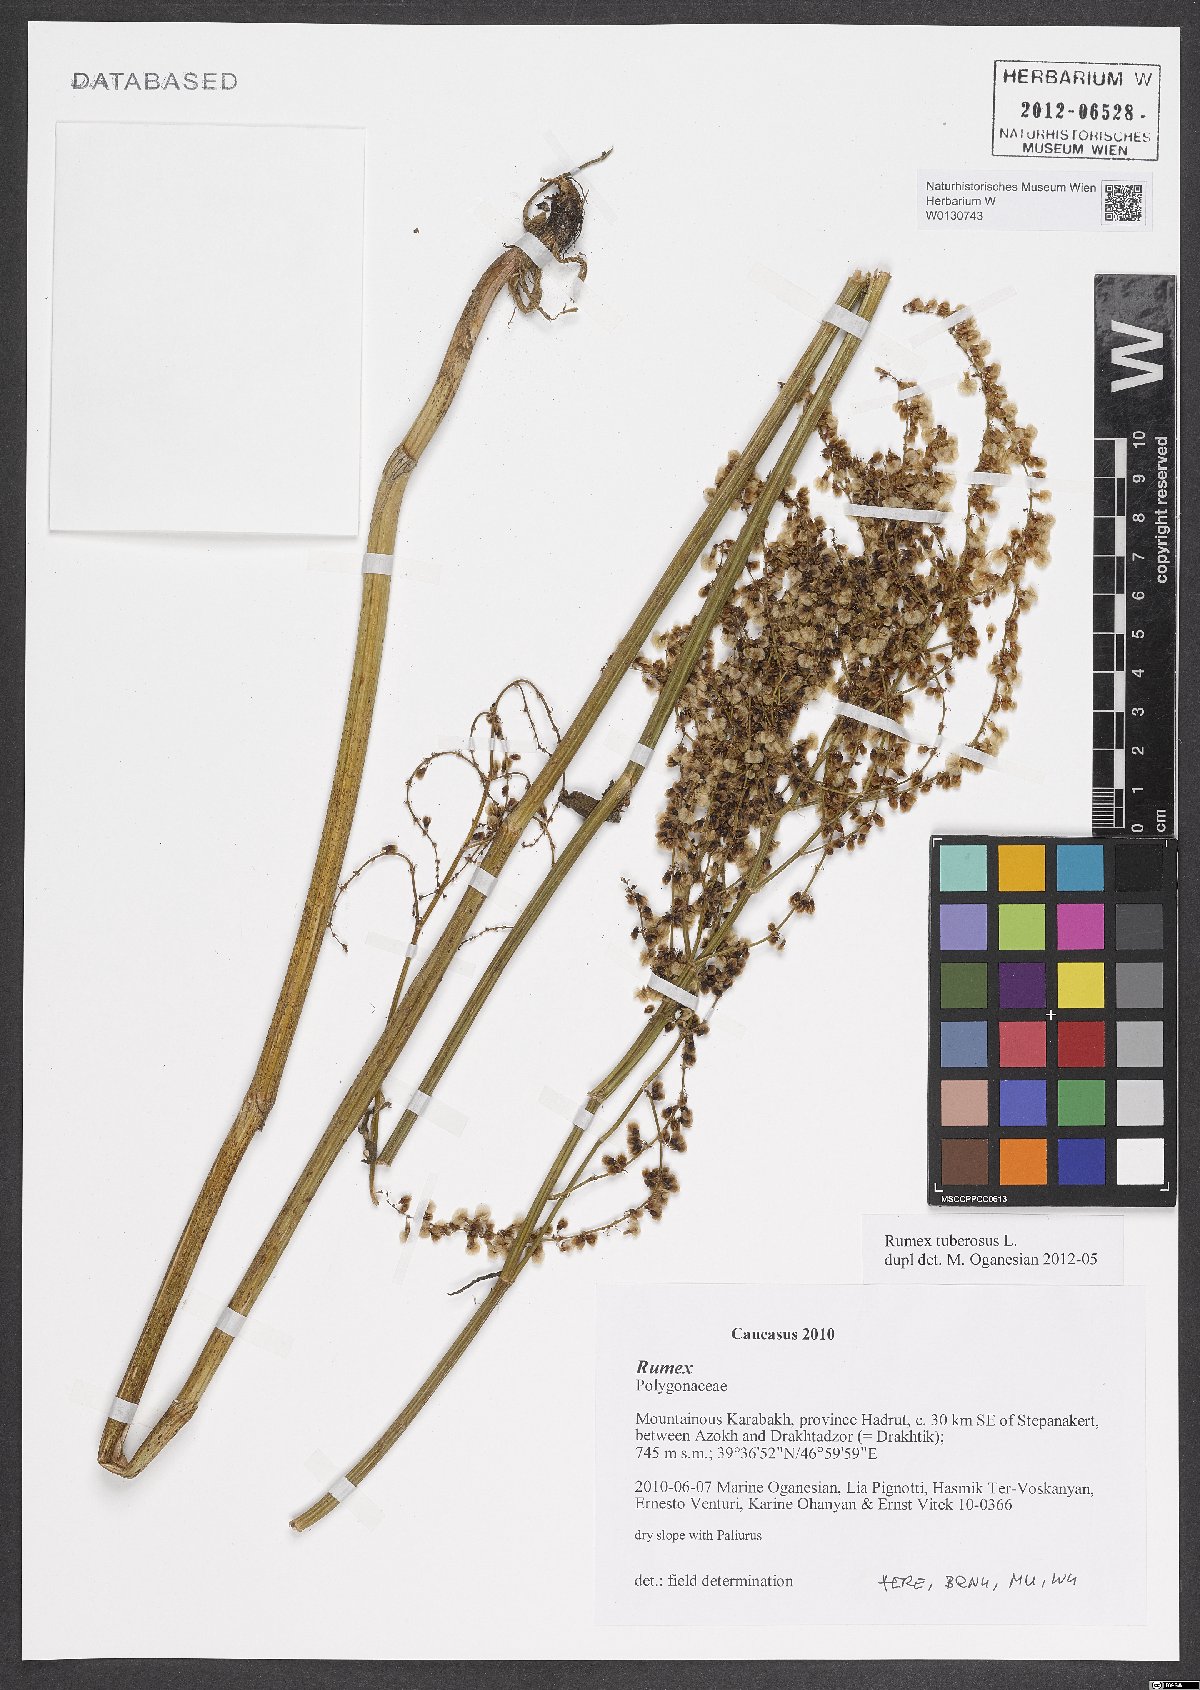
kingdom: Plantae
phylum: Tracheophyta
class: Magnoliopsida
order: Caryophyllales
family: Polygonaceae
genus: Rumex
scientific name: Rumex tuberosus
